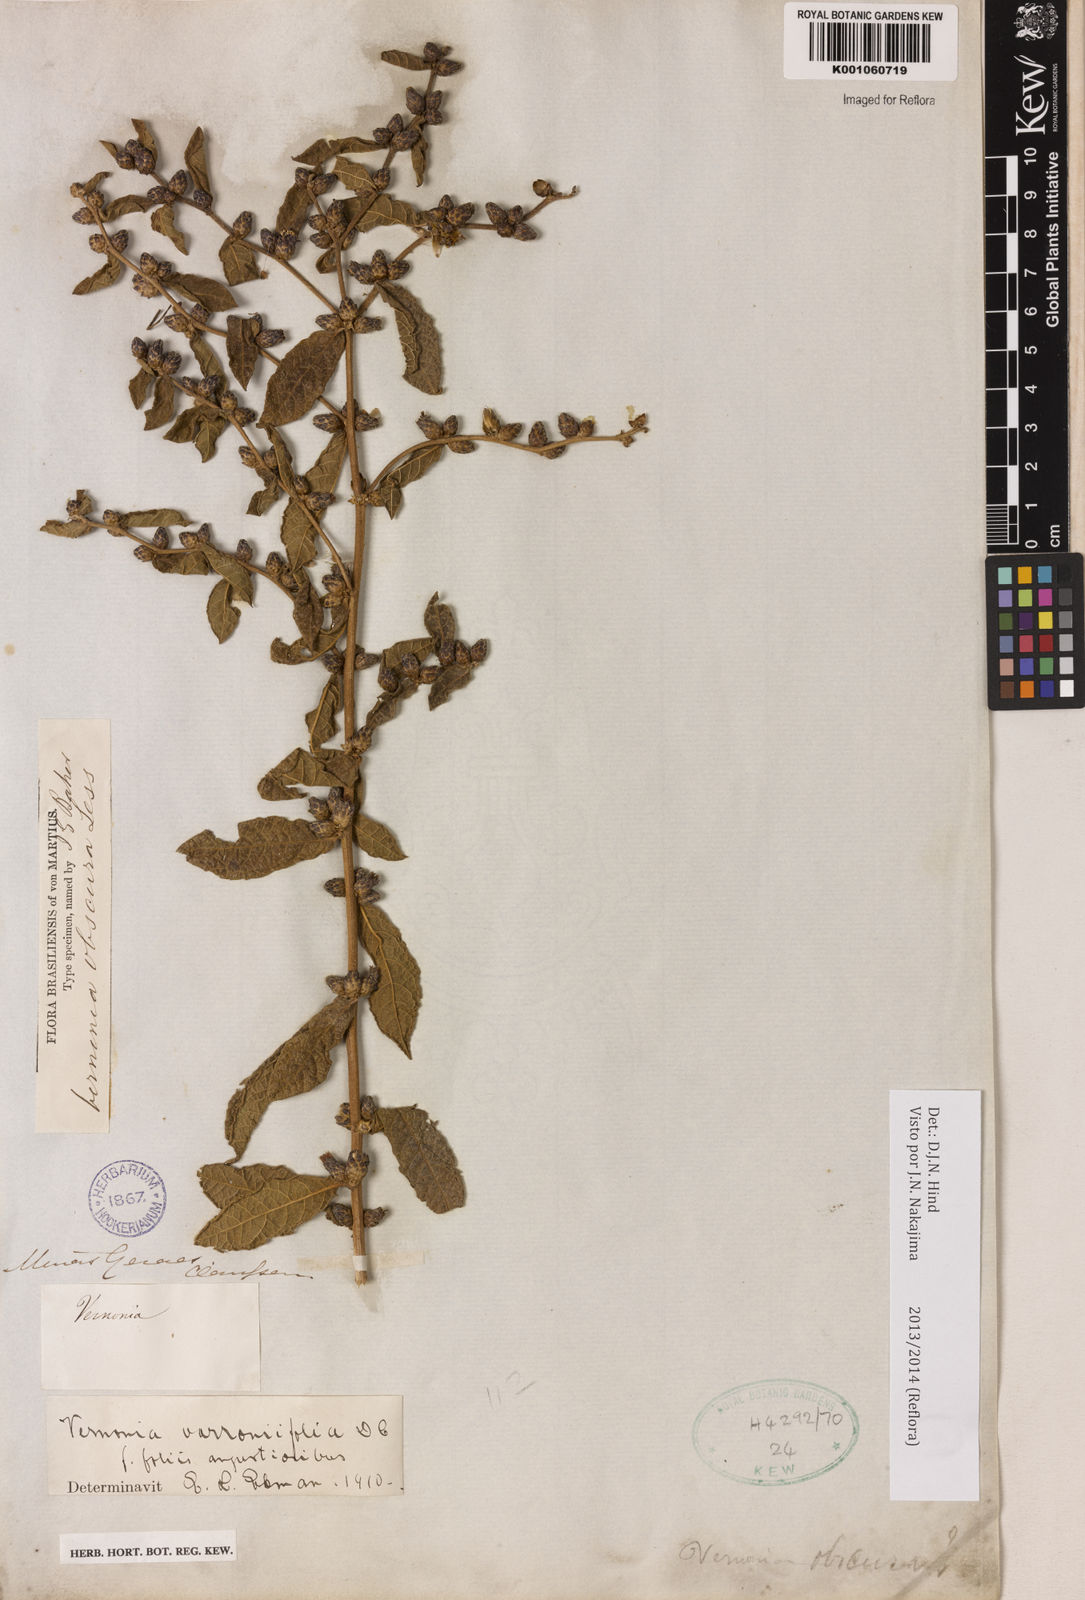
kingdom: Plantae
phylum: Tracheophyta
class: Magnoliopsida
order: Asterales
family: Asteraceae
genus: Lessingianthus
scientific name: Lessingianthus varroniifolius
